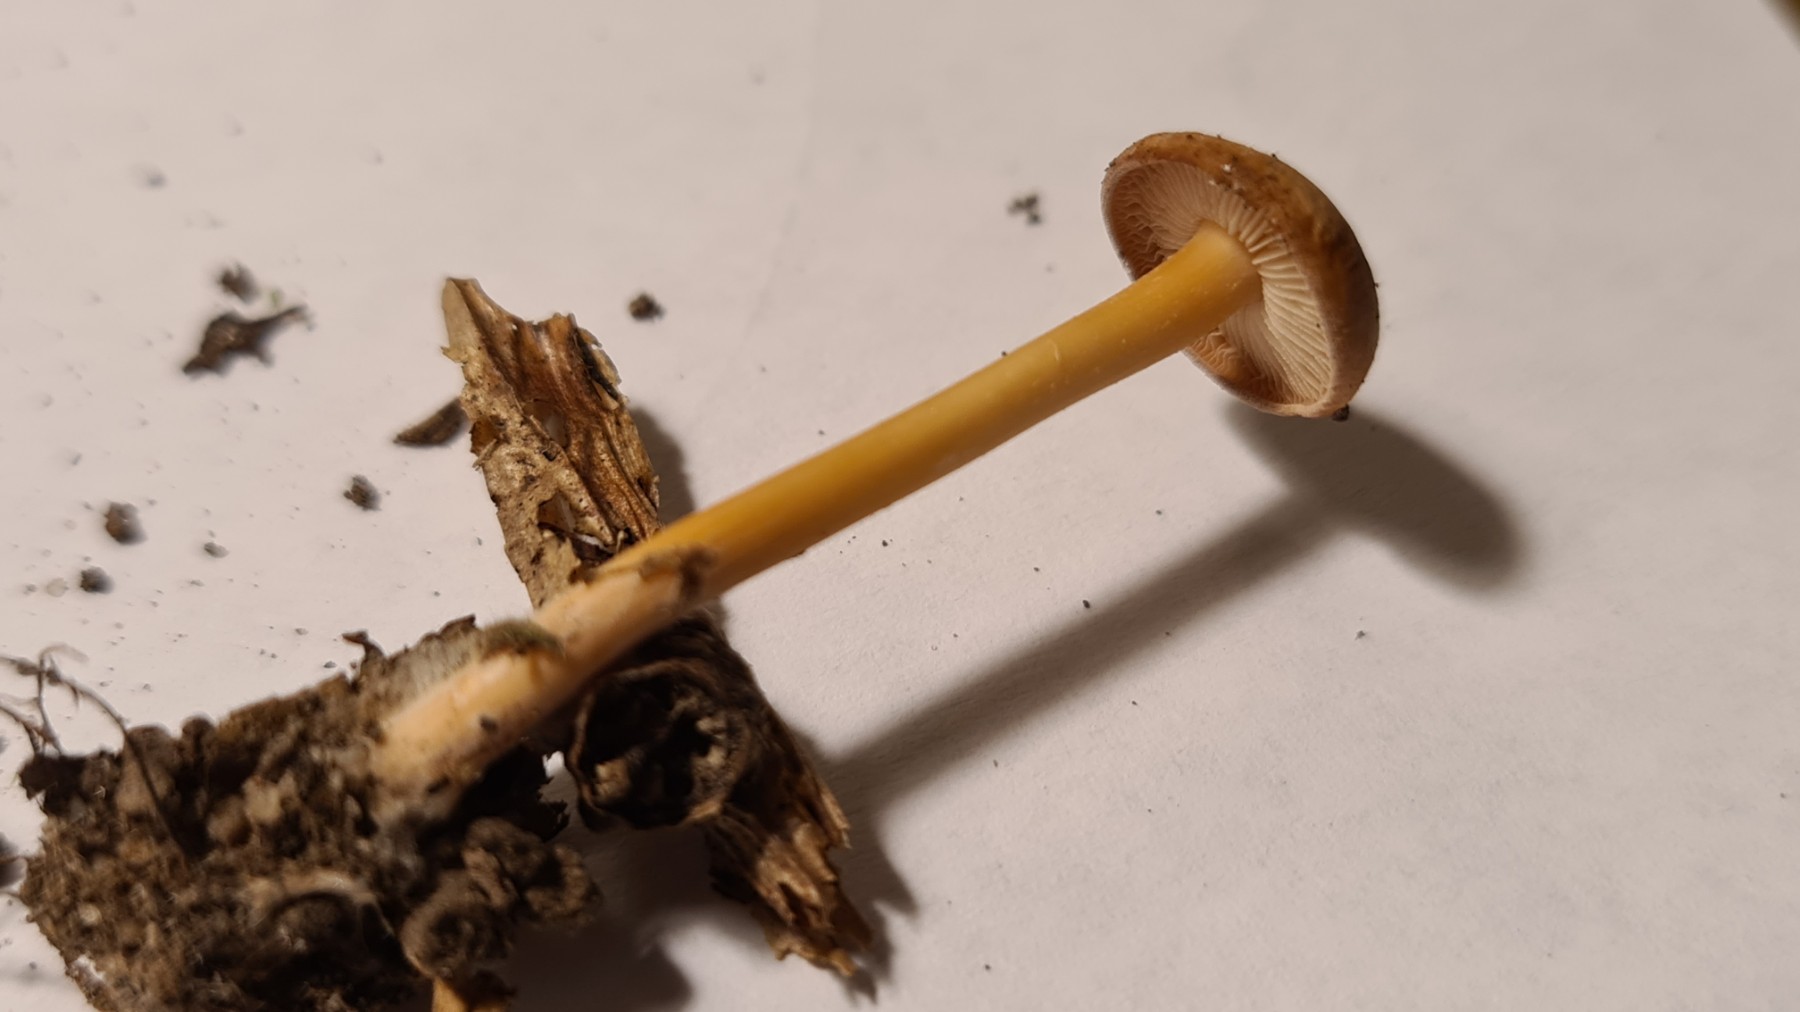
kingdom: Fungi
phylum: Basidiomycota
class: Agaricomycetes
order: Agaricales
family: Omphalotaceae
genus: Gymnopus
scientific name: Gymnopus
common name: fladhat
